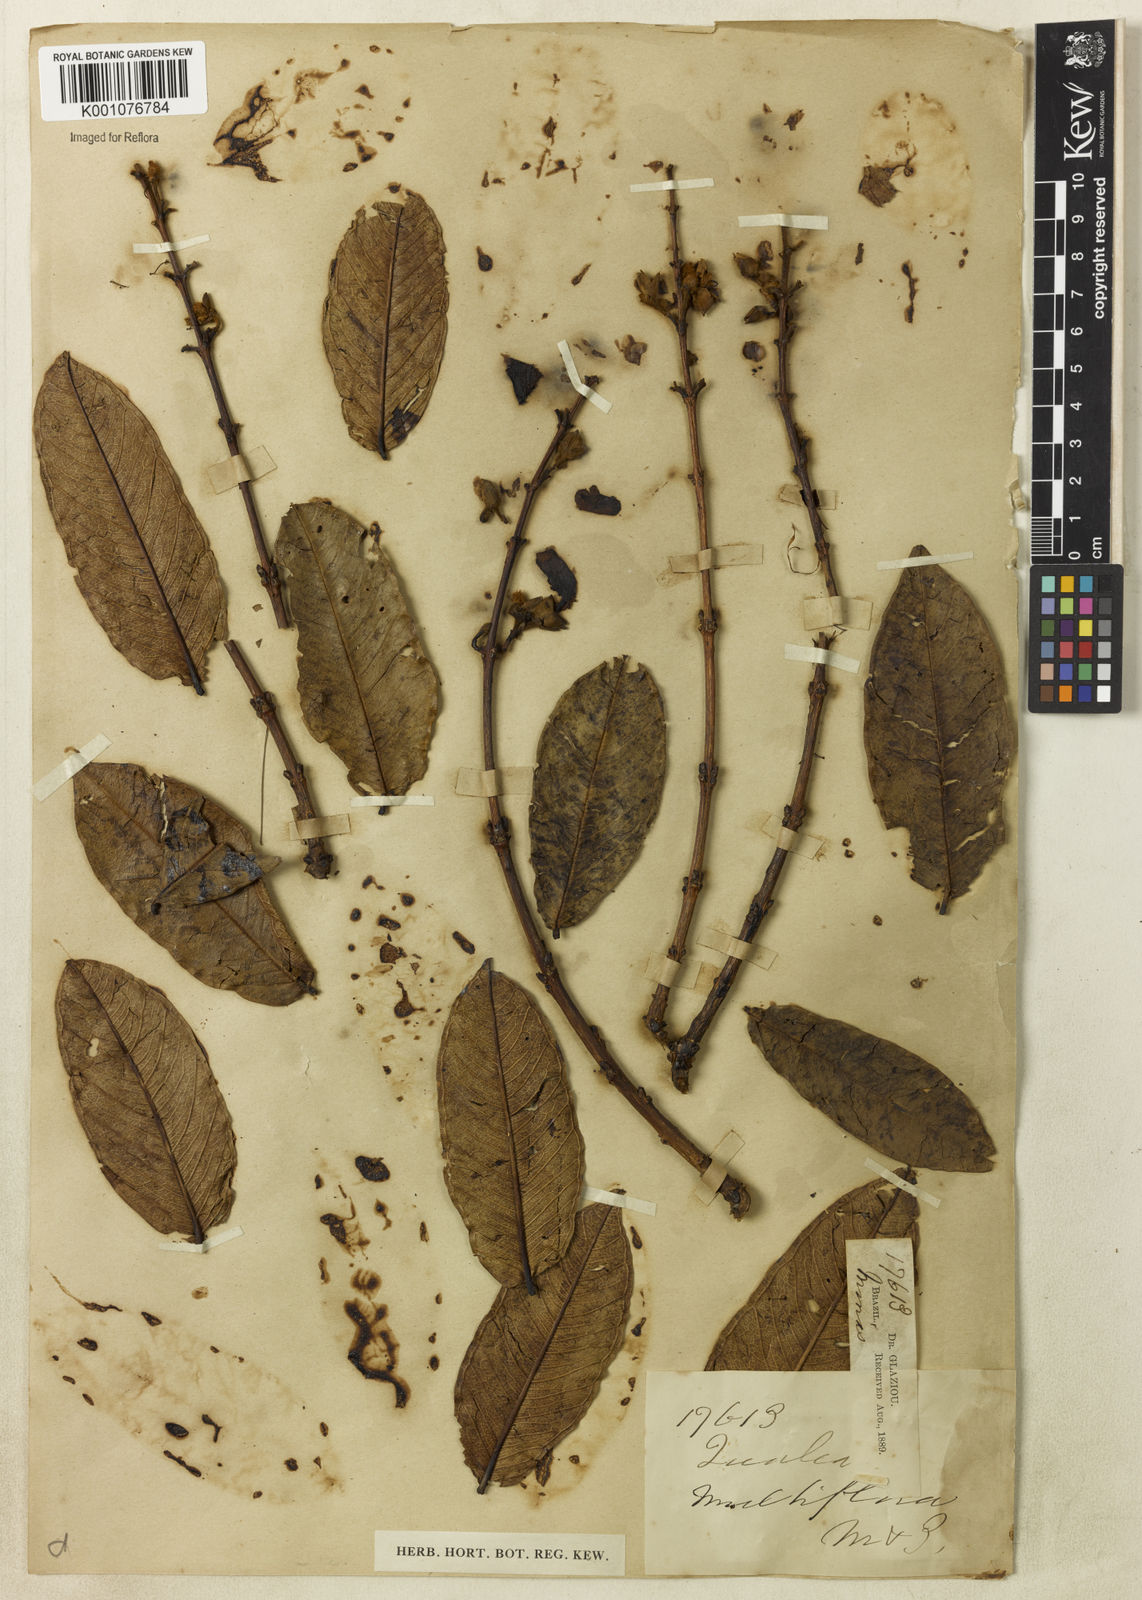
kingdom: Plantae
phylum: Tracheophyta
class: Magnoliopsida
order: Myrtales
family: Vochysiaceae
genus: Qualea
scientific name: Qualea multiflora
